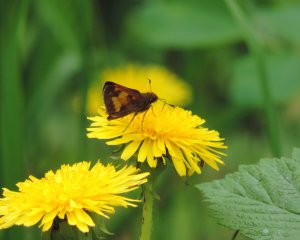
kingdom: Animalia
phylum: Arthropoda
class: Insecta
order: Lepidoptera
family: Hesperiidae
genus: Lon
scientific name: Lon hobomok
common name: Hobomok Skipper
